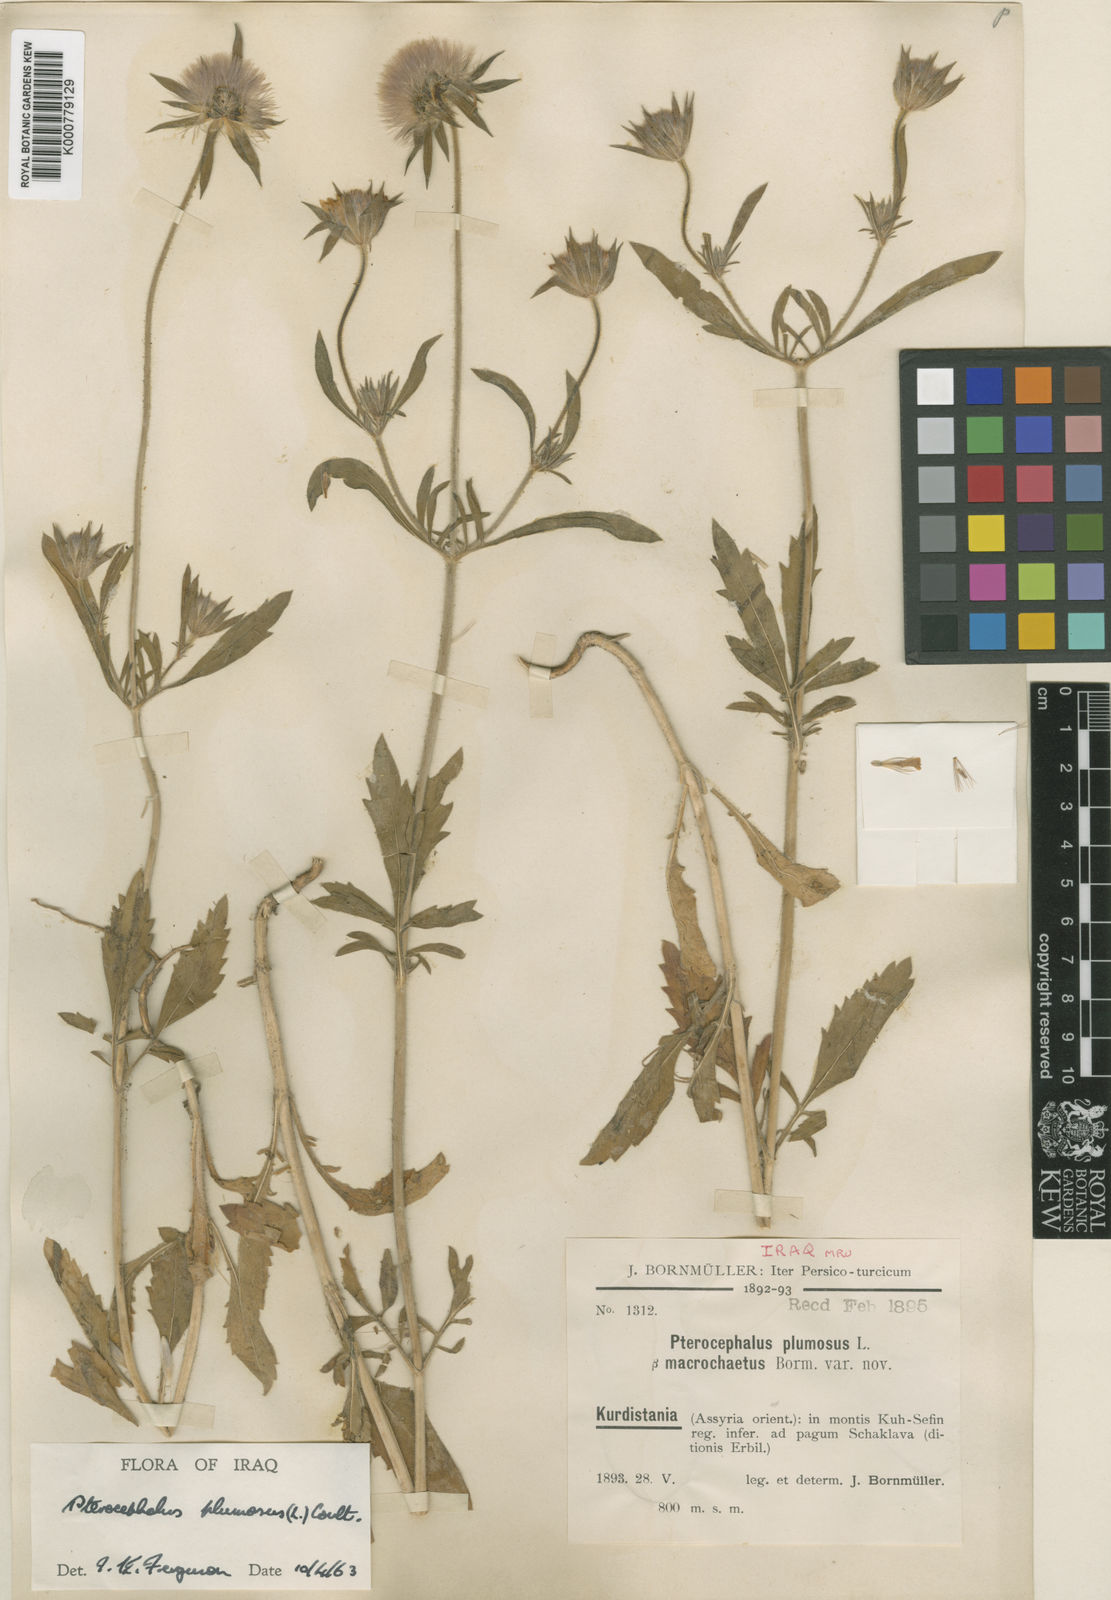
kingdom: Plantae
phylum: Tracheophyta
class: Magnoliopsida
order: Dipsacales
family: Caprifoliaceae
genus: Pterocephalus
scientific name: Pterocephalus plumosus
